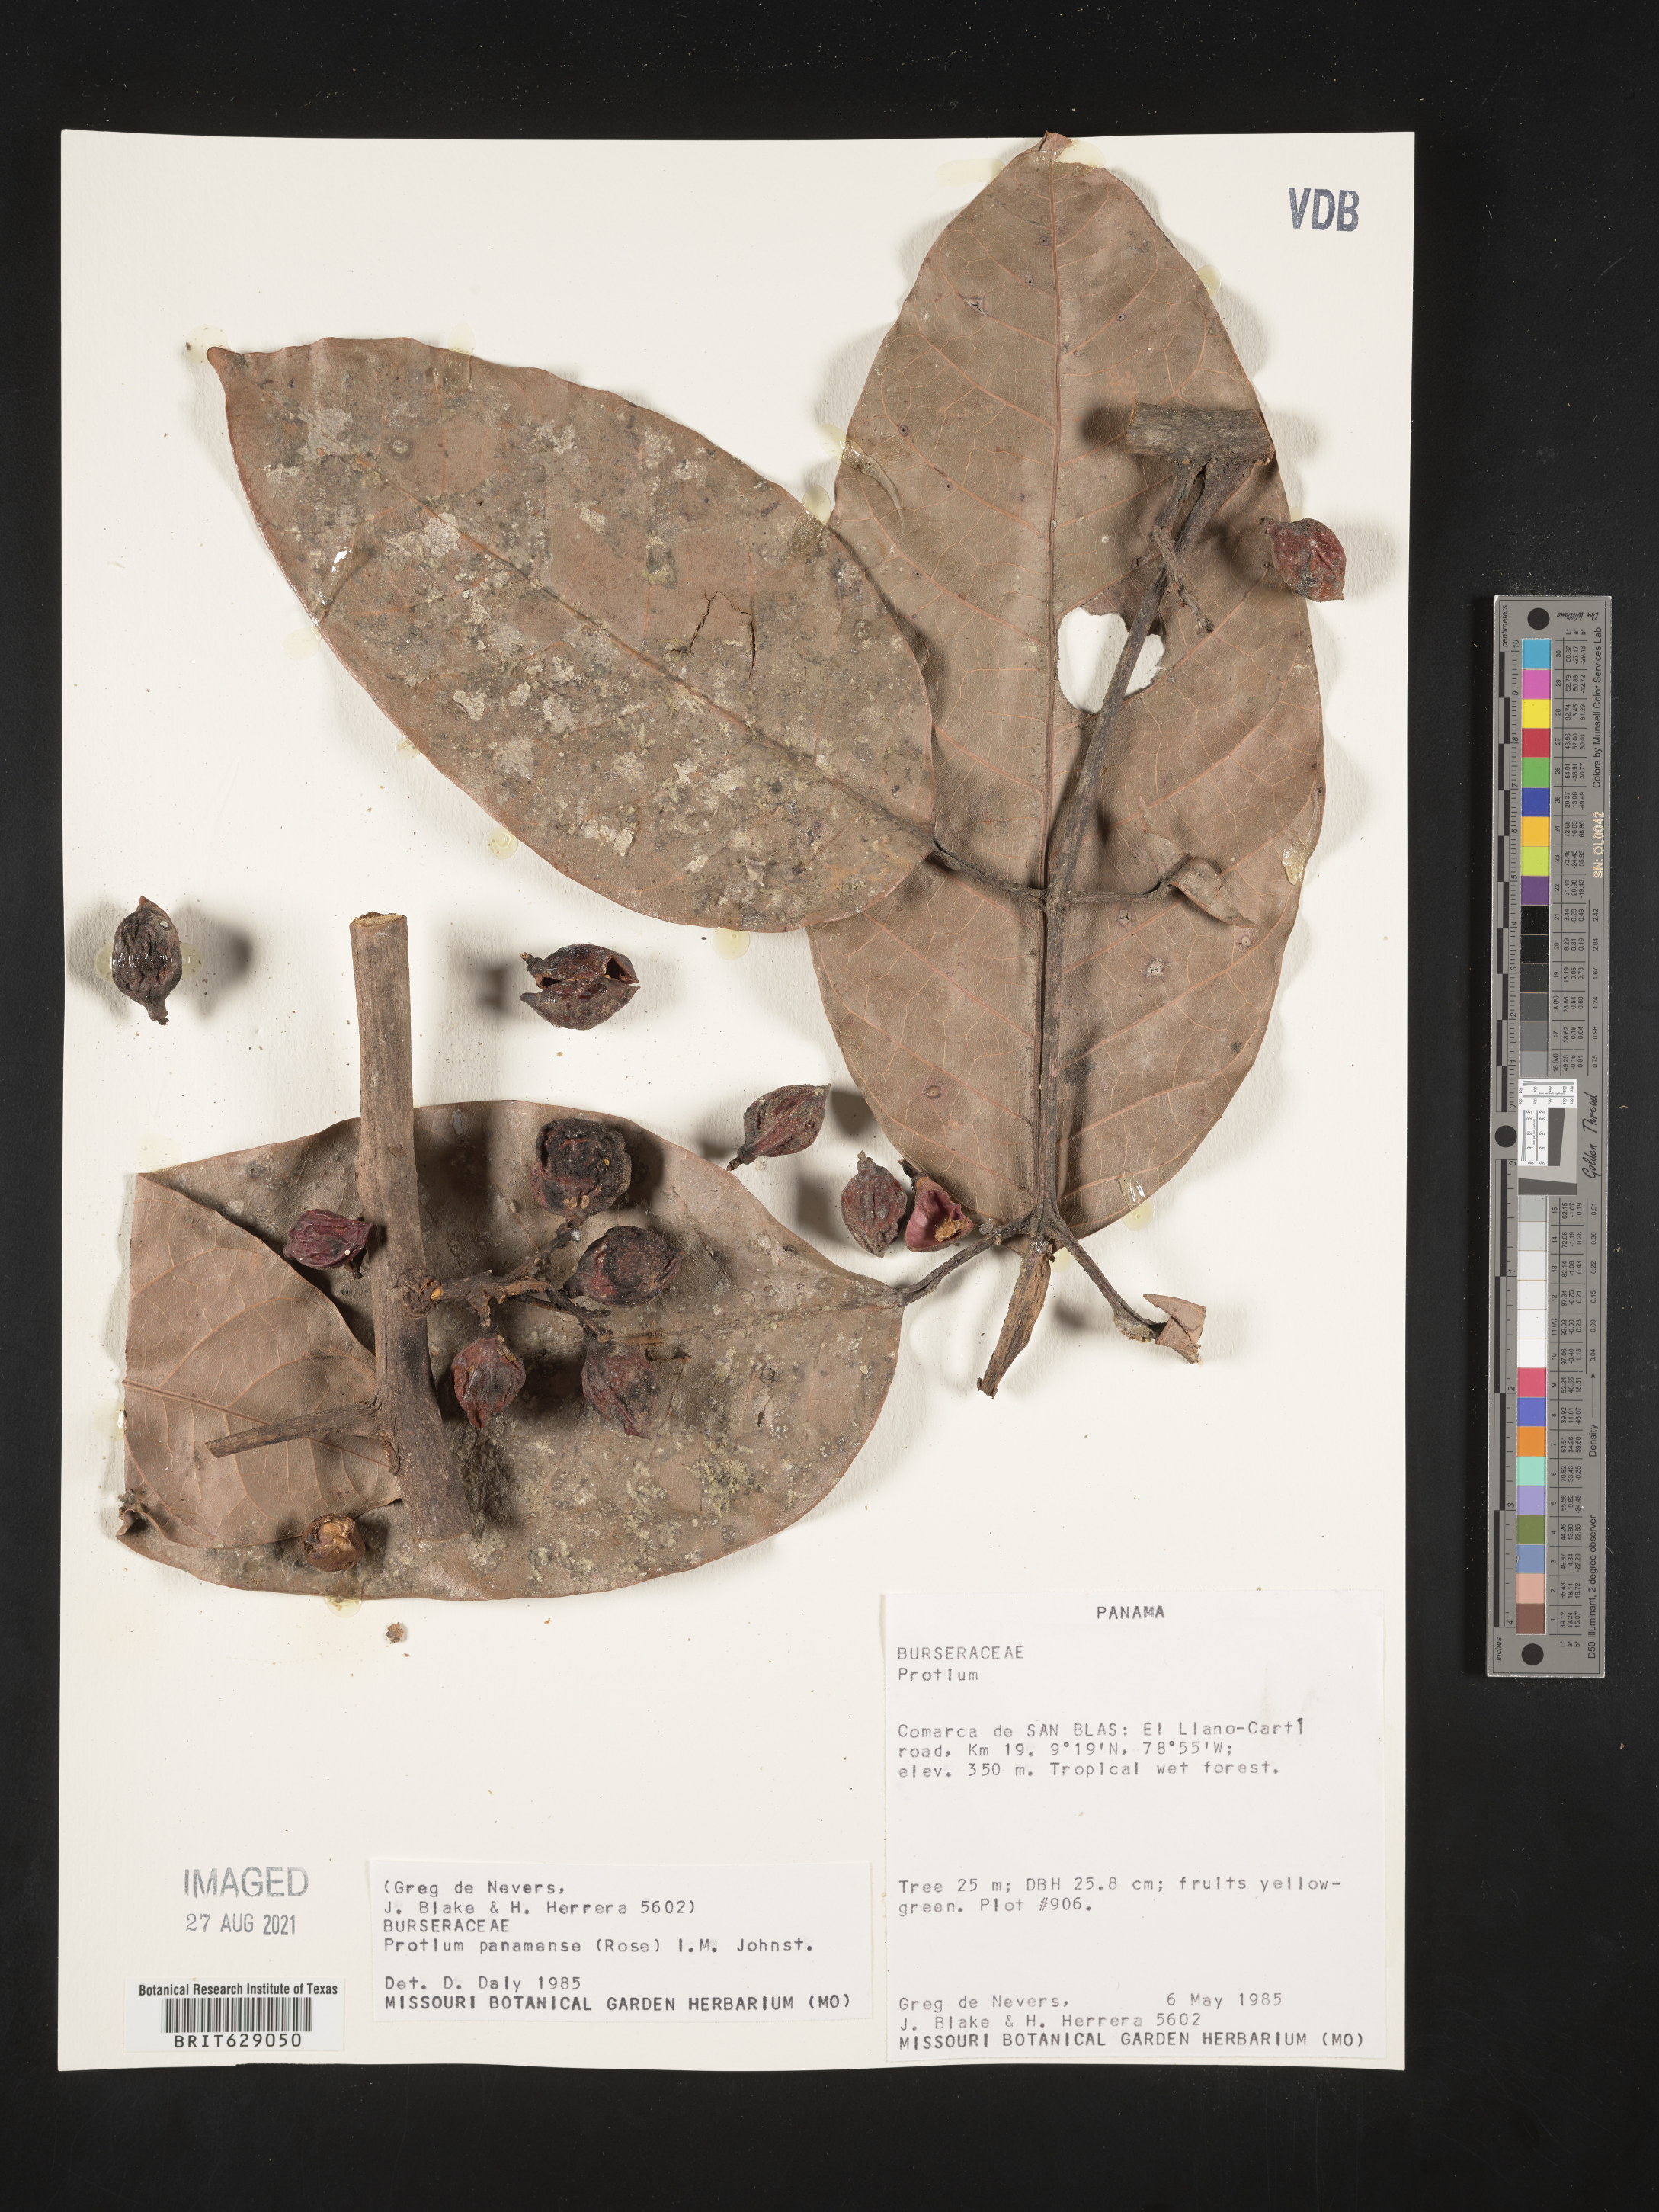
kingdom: Plantae
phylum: Tracheophyta
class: Magnoliopsida
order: Sapindales
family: Burseraceae
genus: Protium
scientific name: Protium panamense
